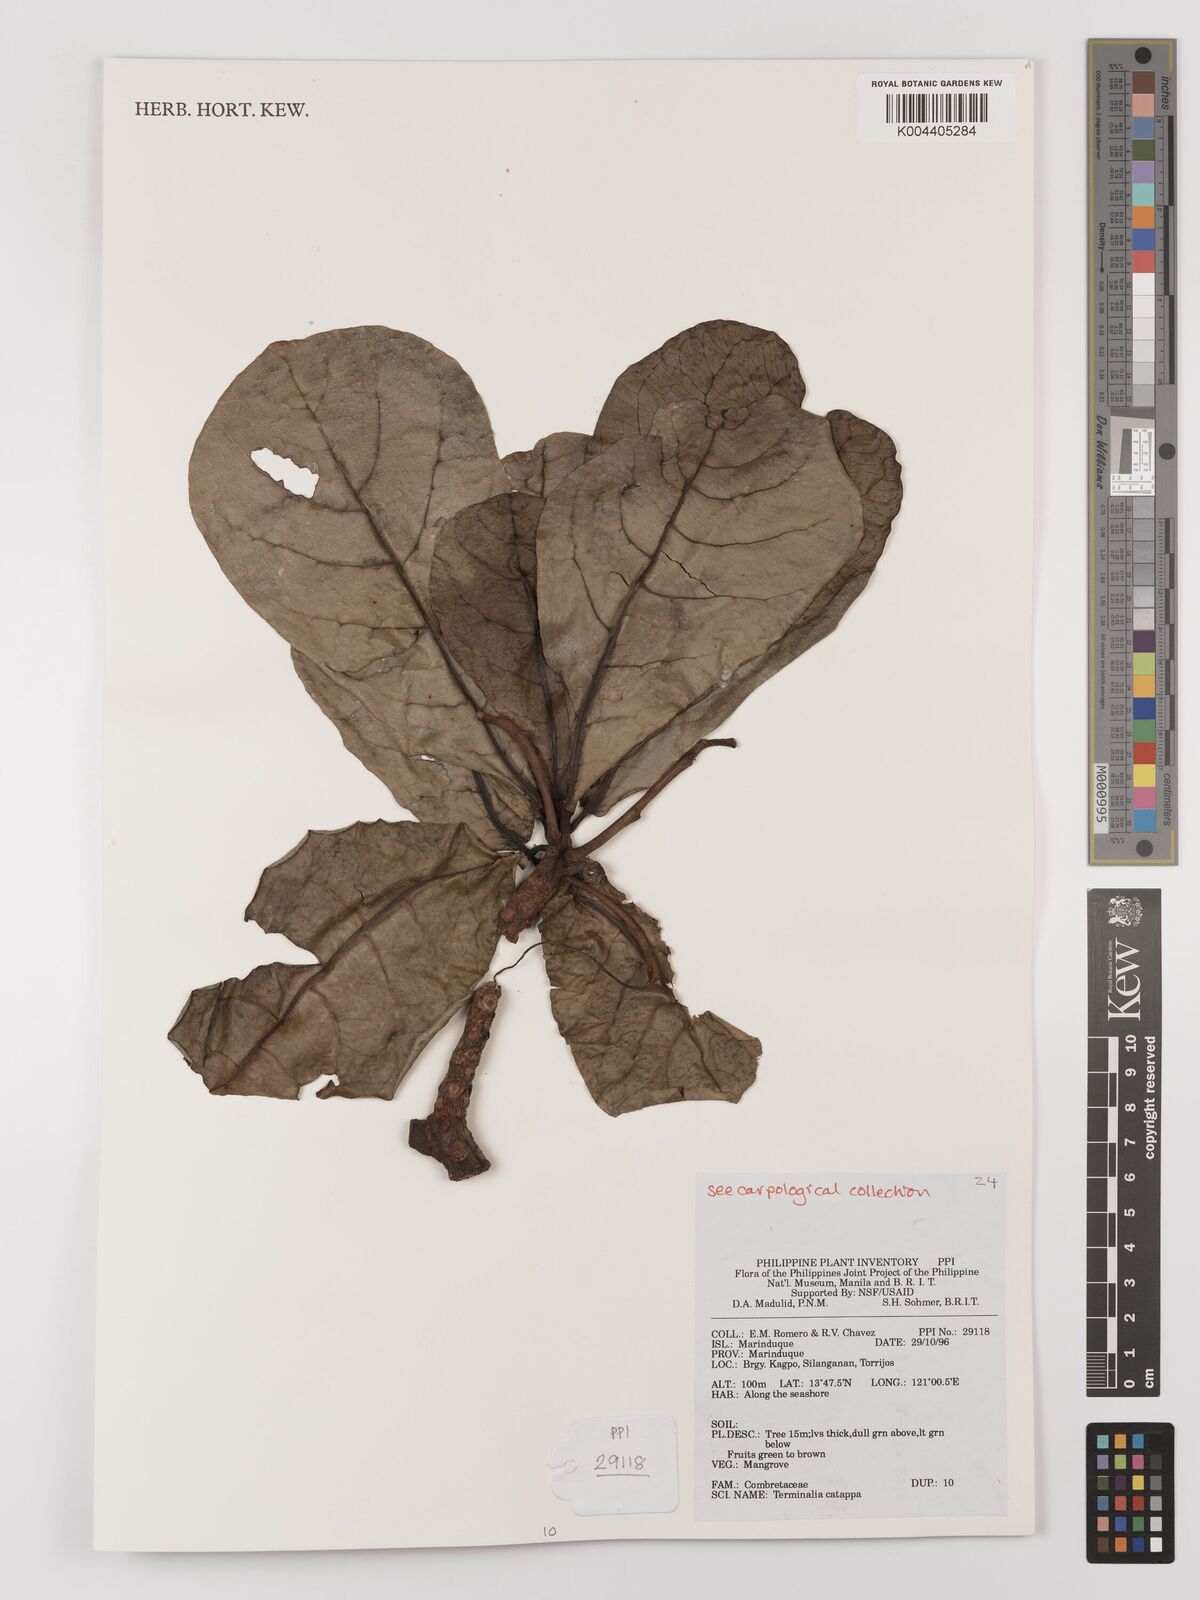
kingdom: Plantae
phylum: Tracheophyta
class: Magnoliopsida
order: Myrtales
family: Combretaceae
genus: Terminalia
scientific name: Terminalia catappa
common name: Tropical almond
